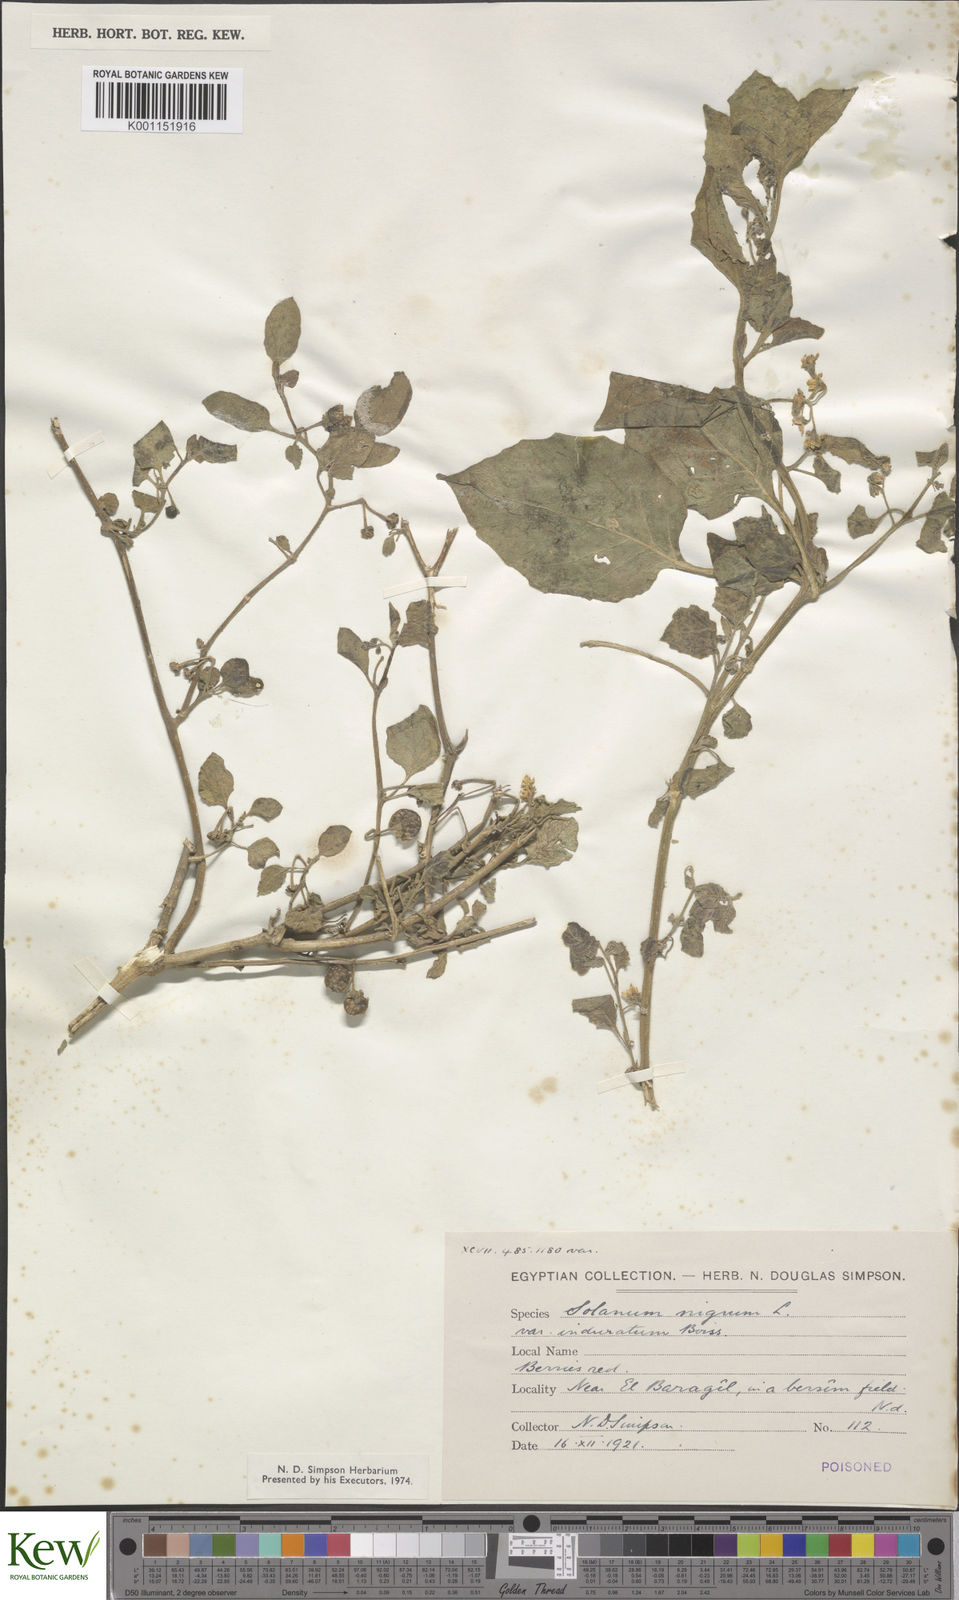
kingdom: Plantae
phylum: Tracheophyta
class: Magnoliopsida
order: Solanales
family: Solanaceae
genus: Solanum
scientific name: Solanum villosum
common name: Red nightshade
